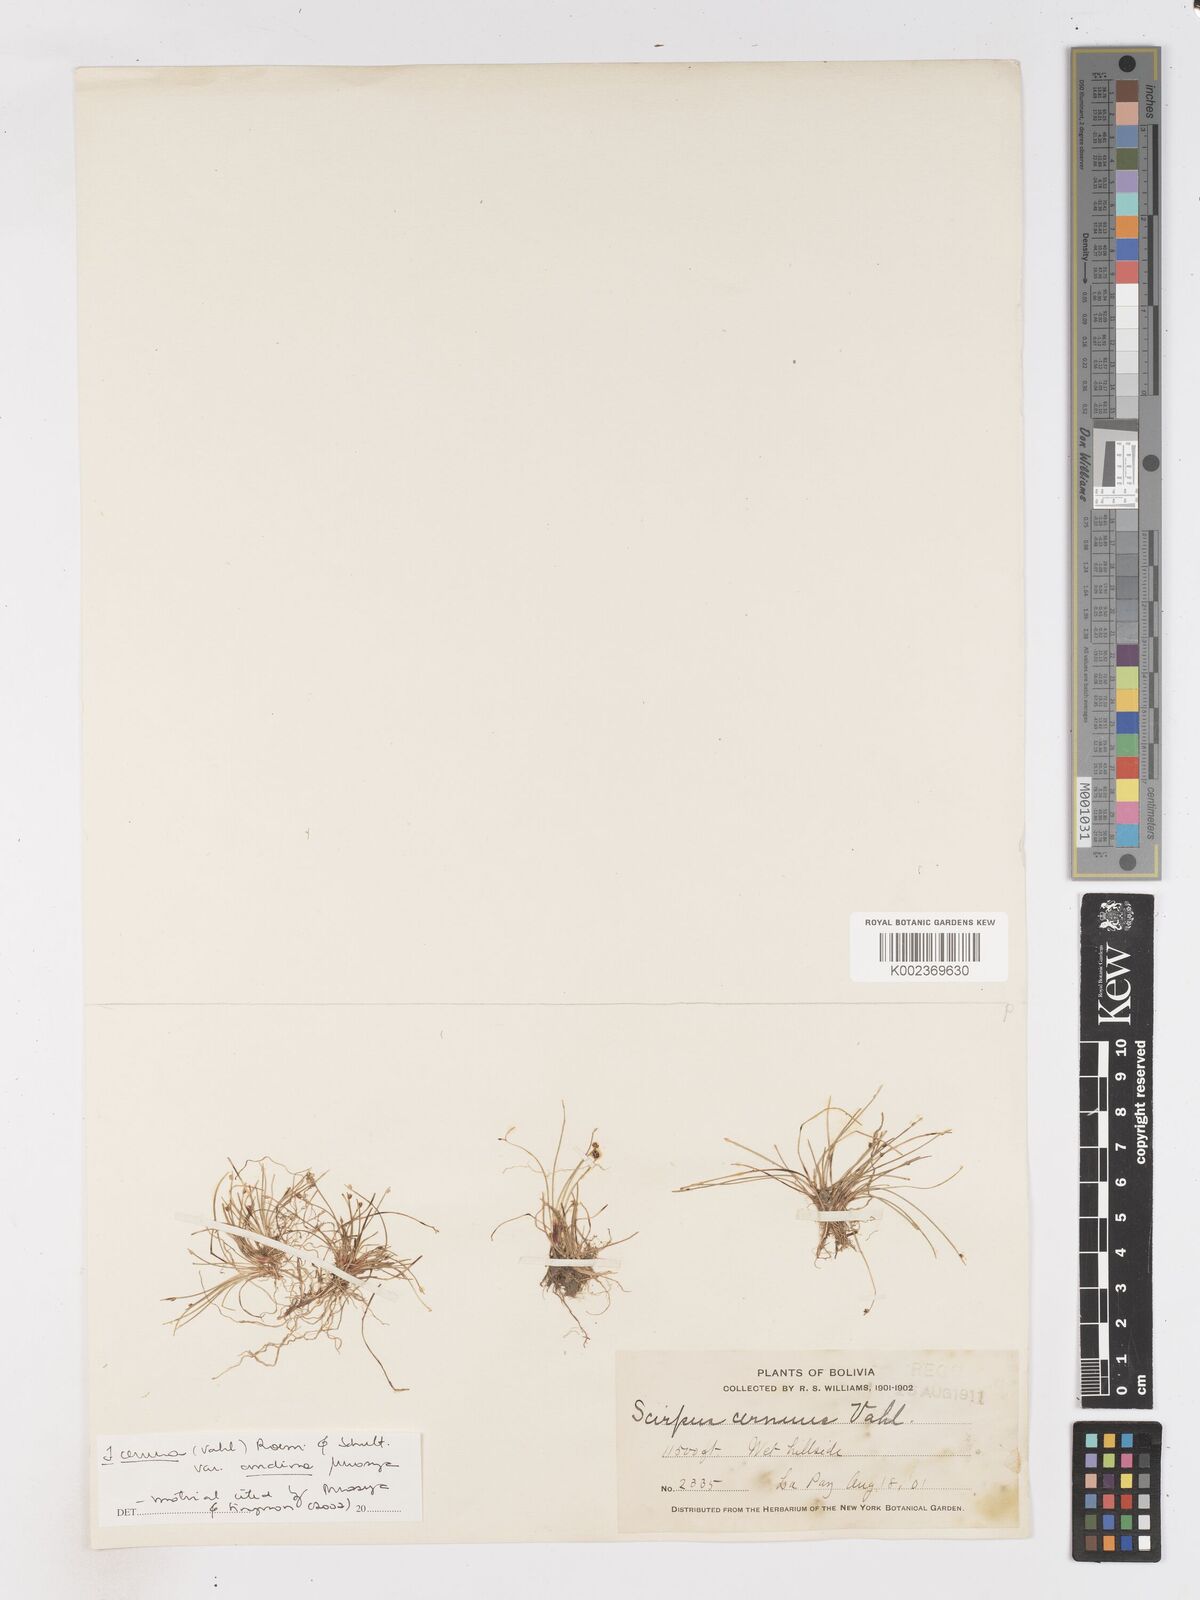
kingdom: Plantae
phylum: Tracheophyta
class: Liliopsida
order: Poales
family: Cyperaceae
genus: Isolepis
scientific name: Isolepis cernua
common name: Slender club-rush
